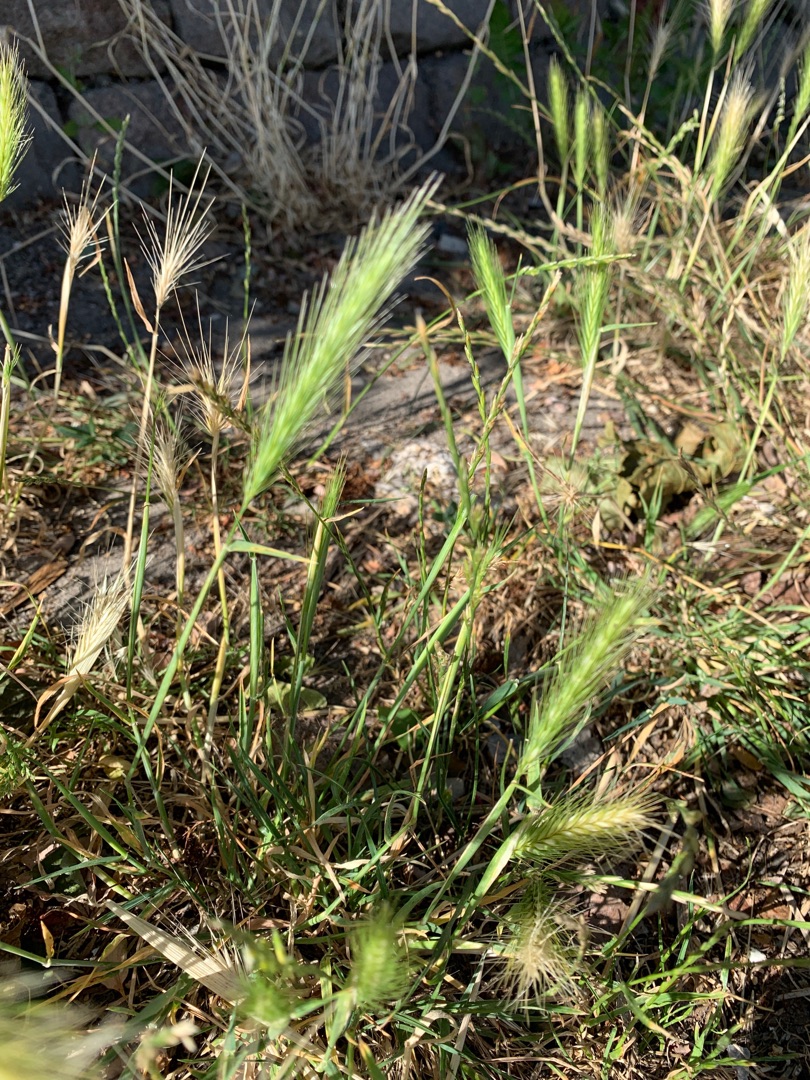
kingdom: Plantae
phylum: Tracheophyta
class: Liliopsida
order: Poales
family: Poaceae
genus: Hordeum
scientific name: Hordeum murinum
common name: Gold byg
